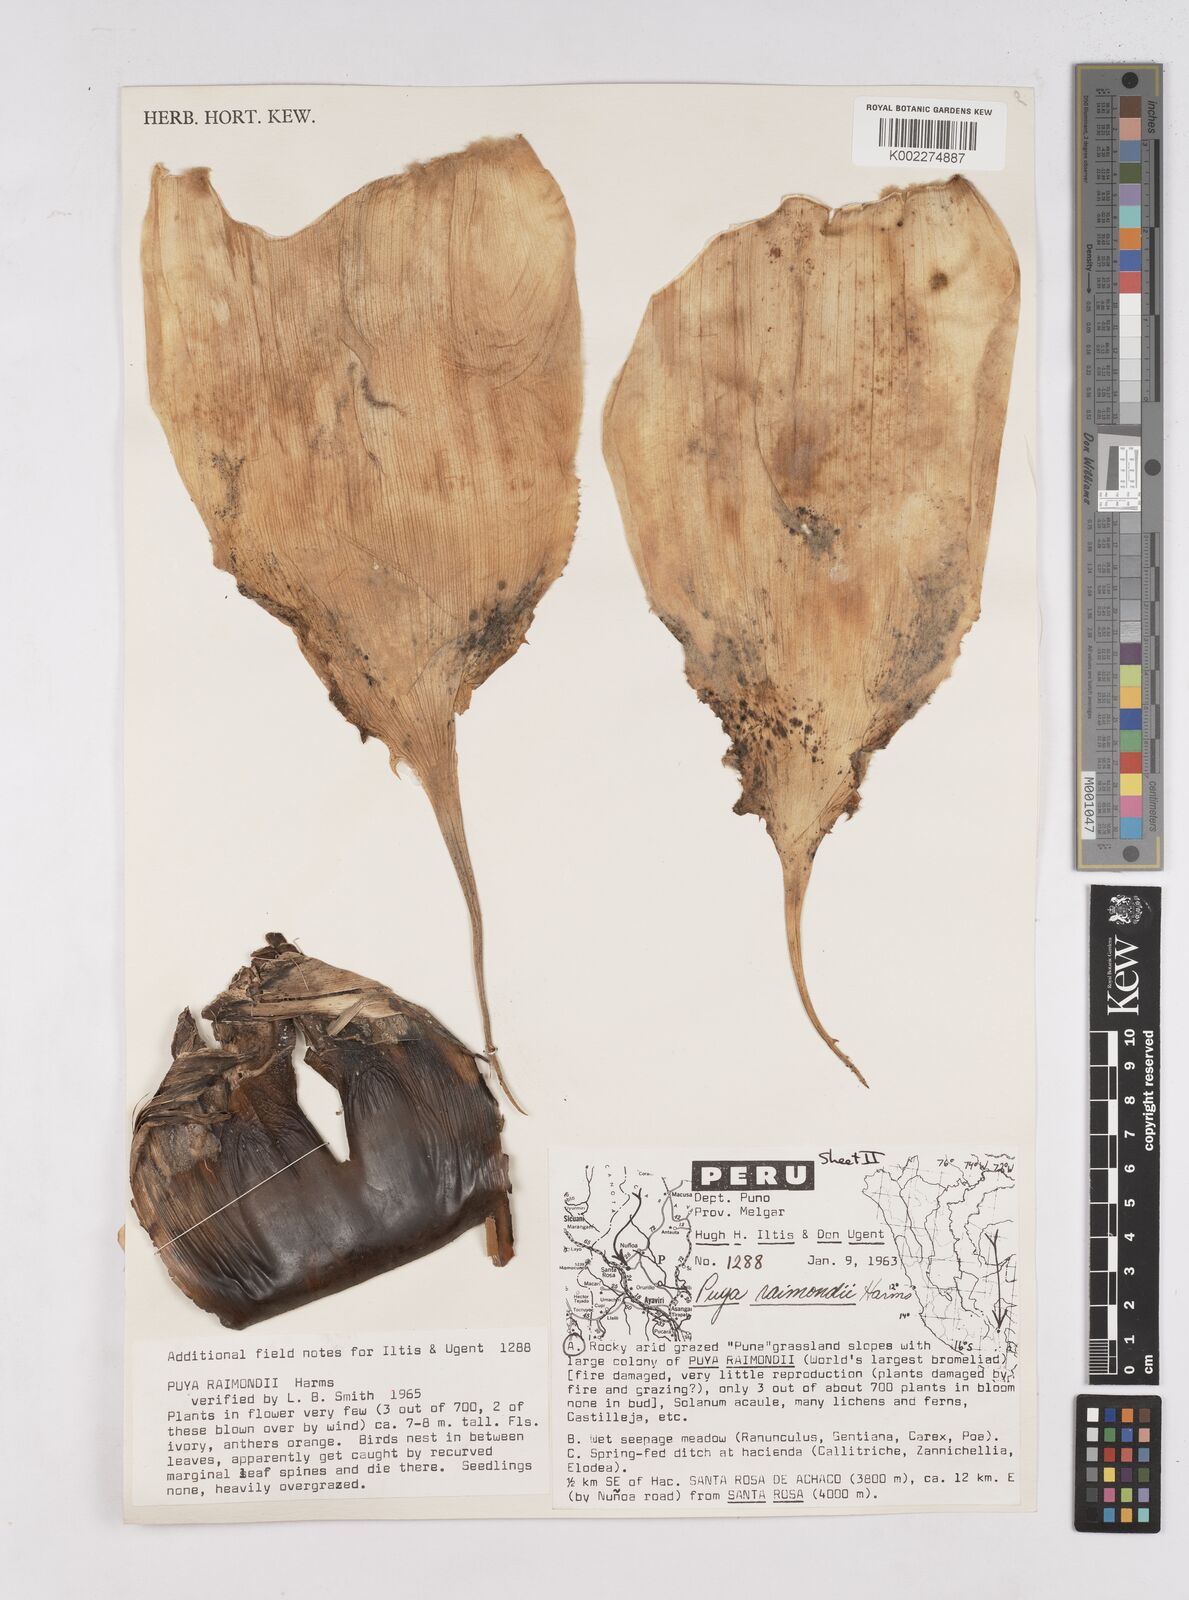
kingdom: Plantae
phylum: Tracheophyta
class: Liliopsida
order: Poales
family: Bromeliaceae
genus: Puya
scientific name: Puya raimondii
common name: Queen of the andes
